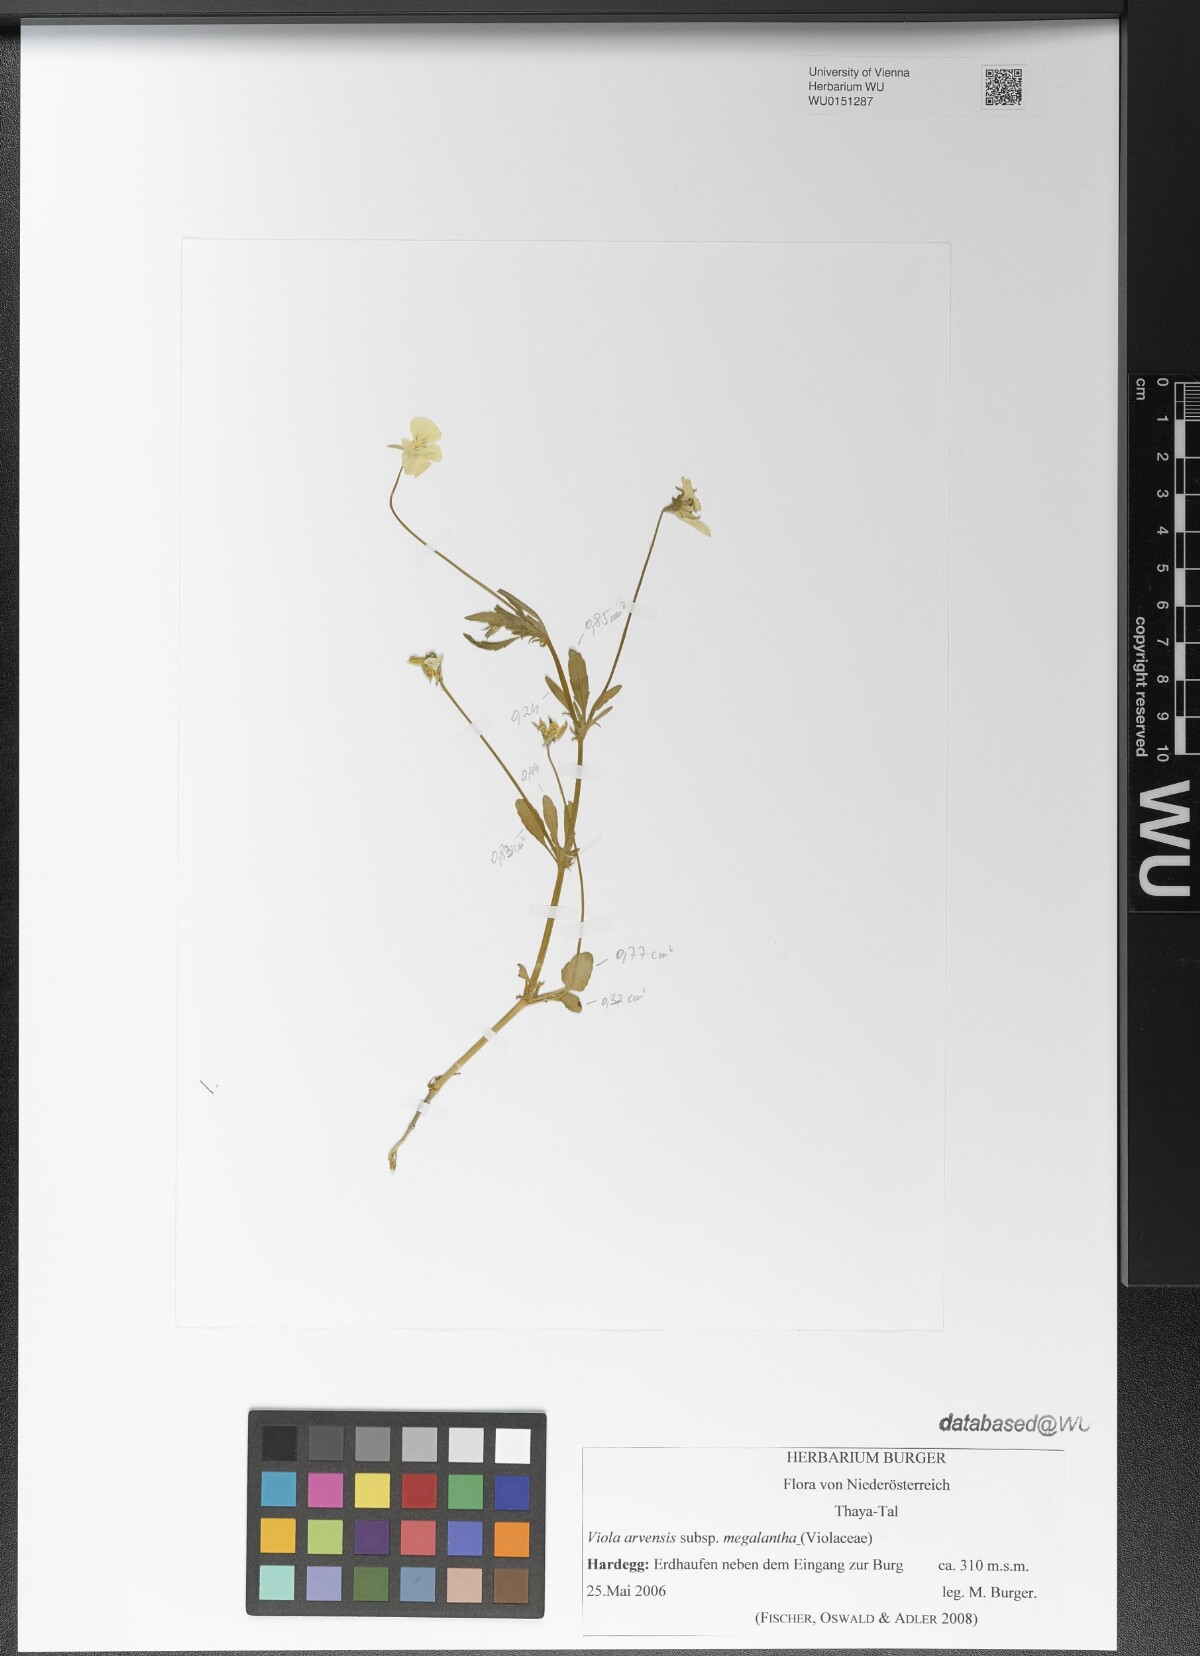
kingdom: Plantae
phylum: Tracheophyta
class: Magnoliopsida
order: Malpighiales
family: Violaceae
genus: Viola
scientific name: Viola arvensis
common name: Field pansy
